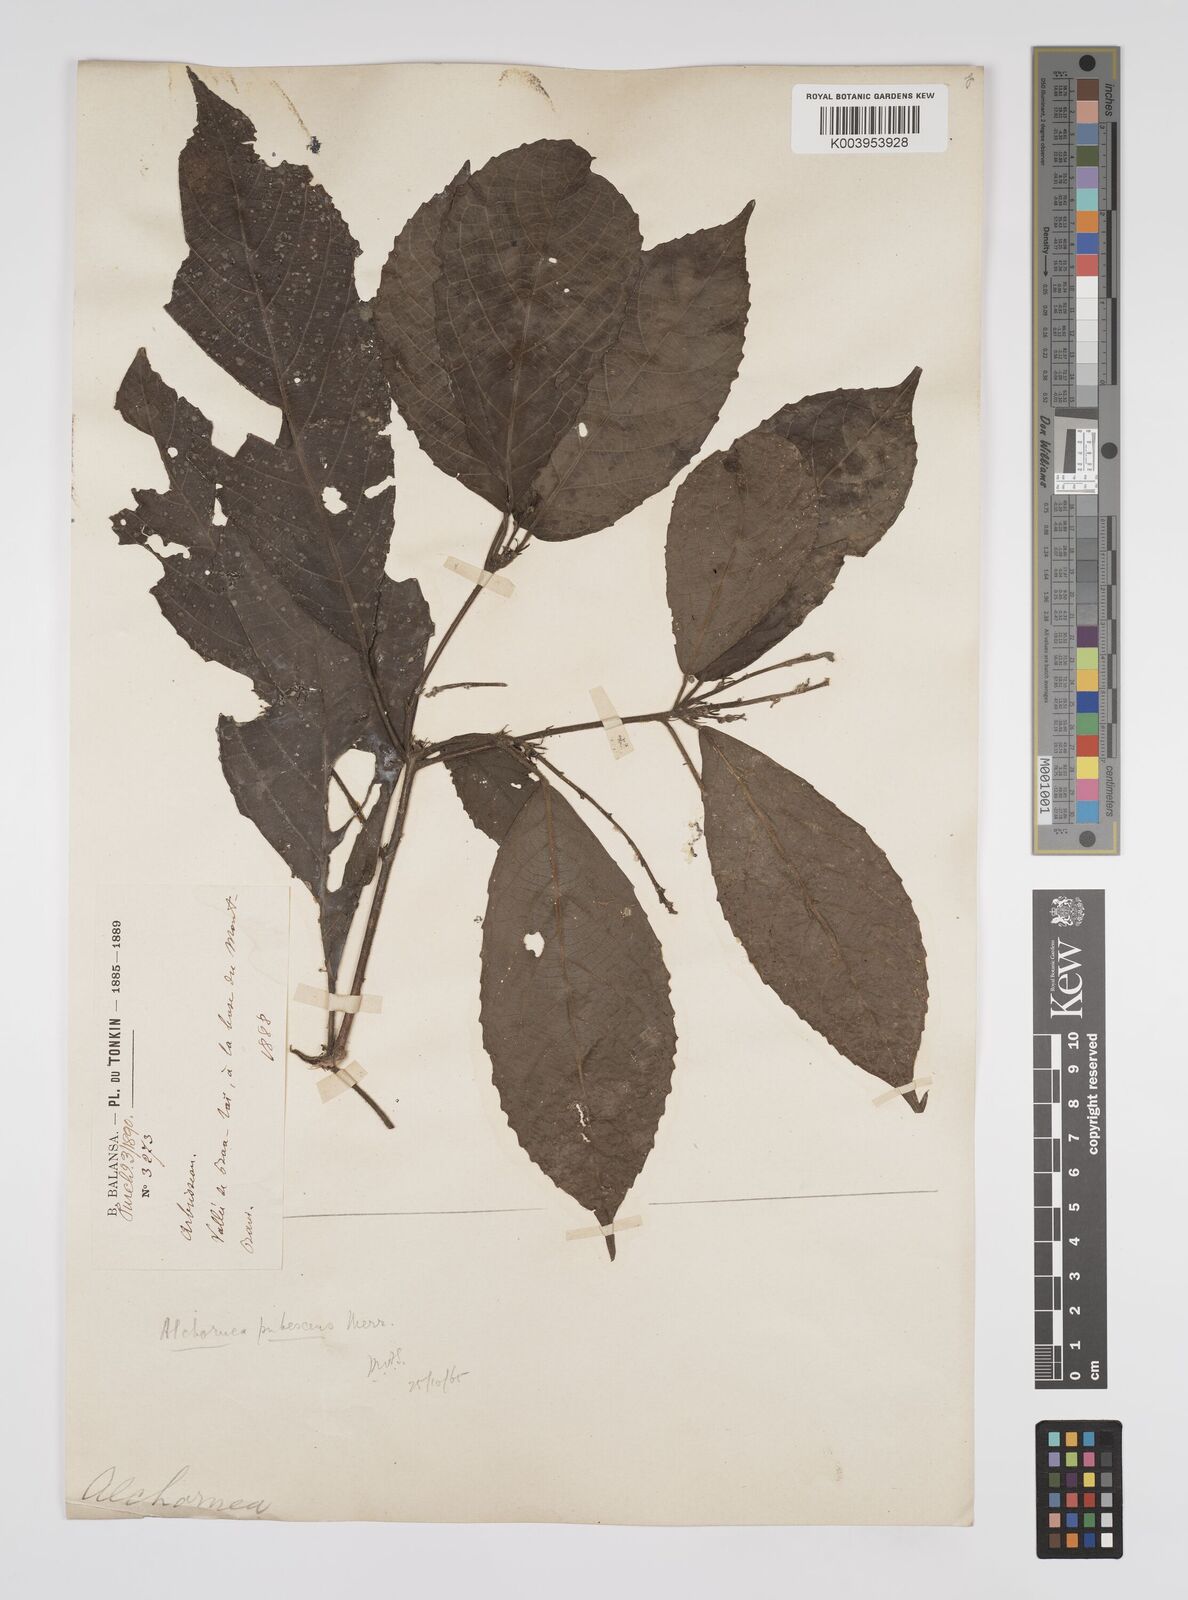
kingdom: Plantae
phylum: Tracheophyta
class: Magnoliopsida
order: Malpighiales
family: Euphorbiaceae
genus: Alchornea
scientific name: Alchornea rugosa
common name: Alchorntree
